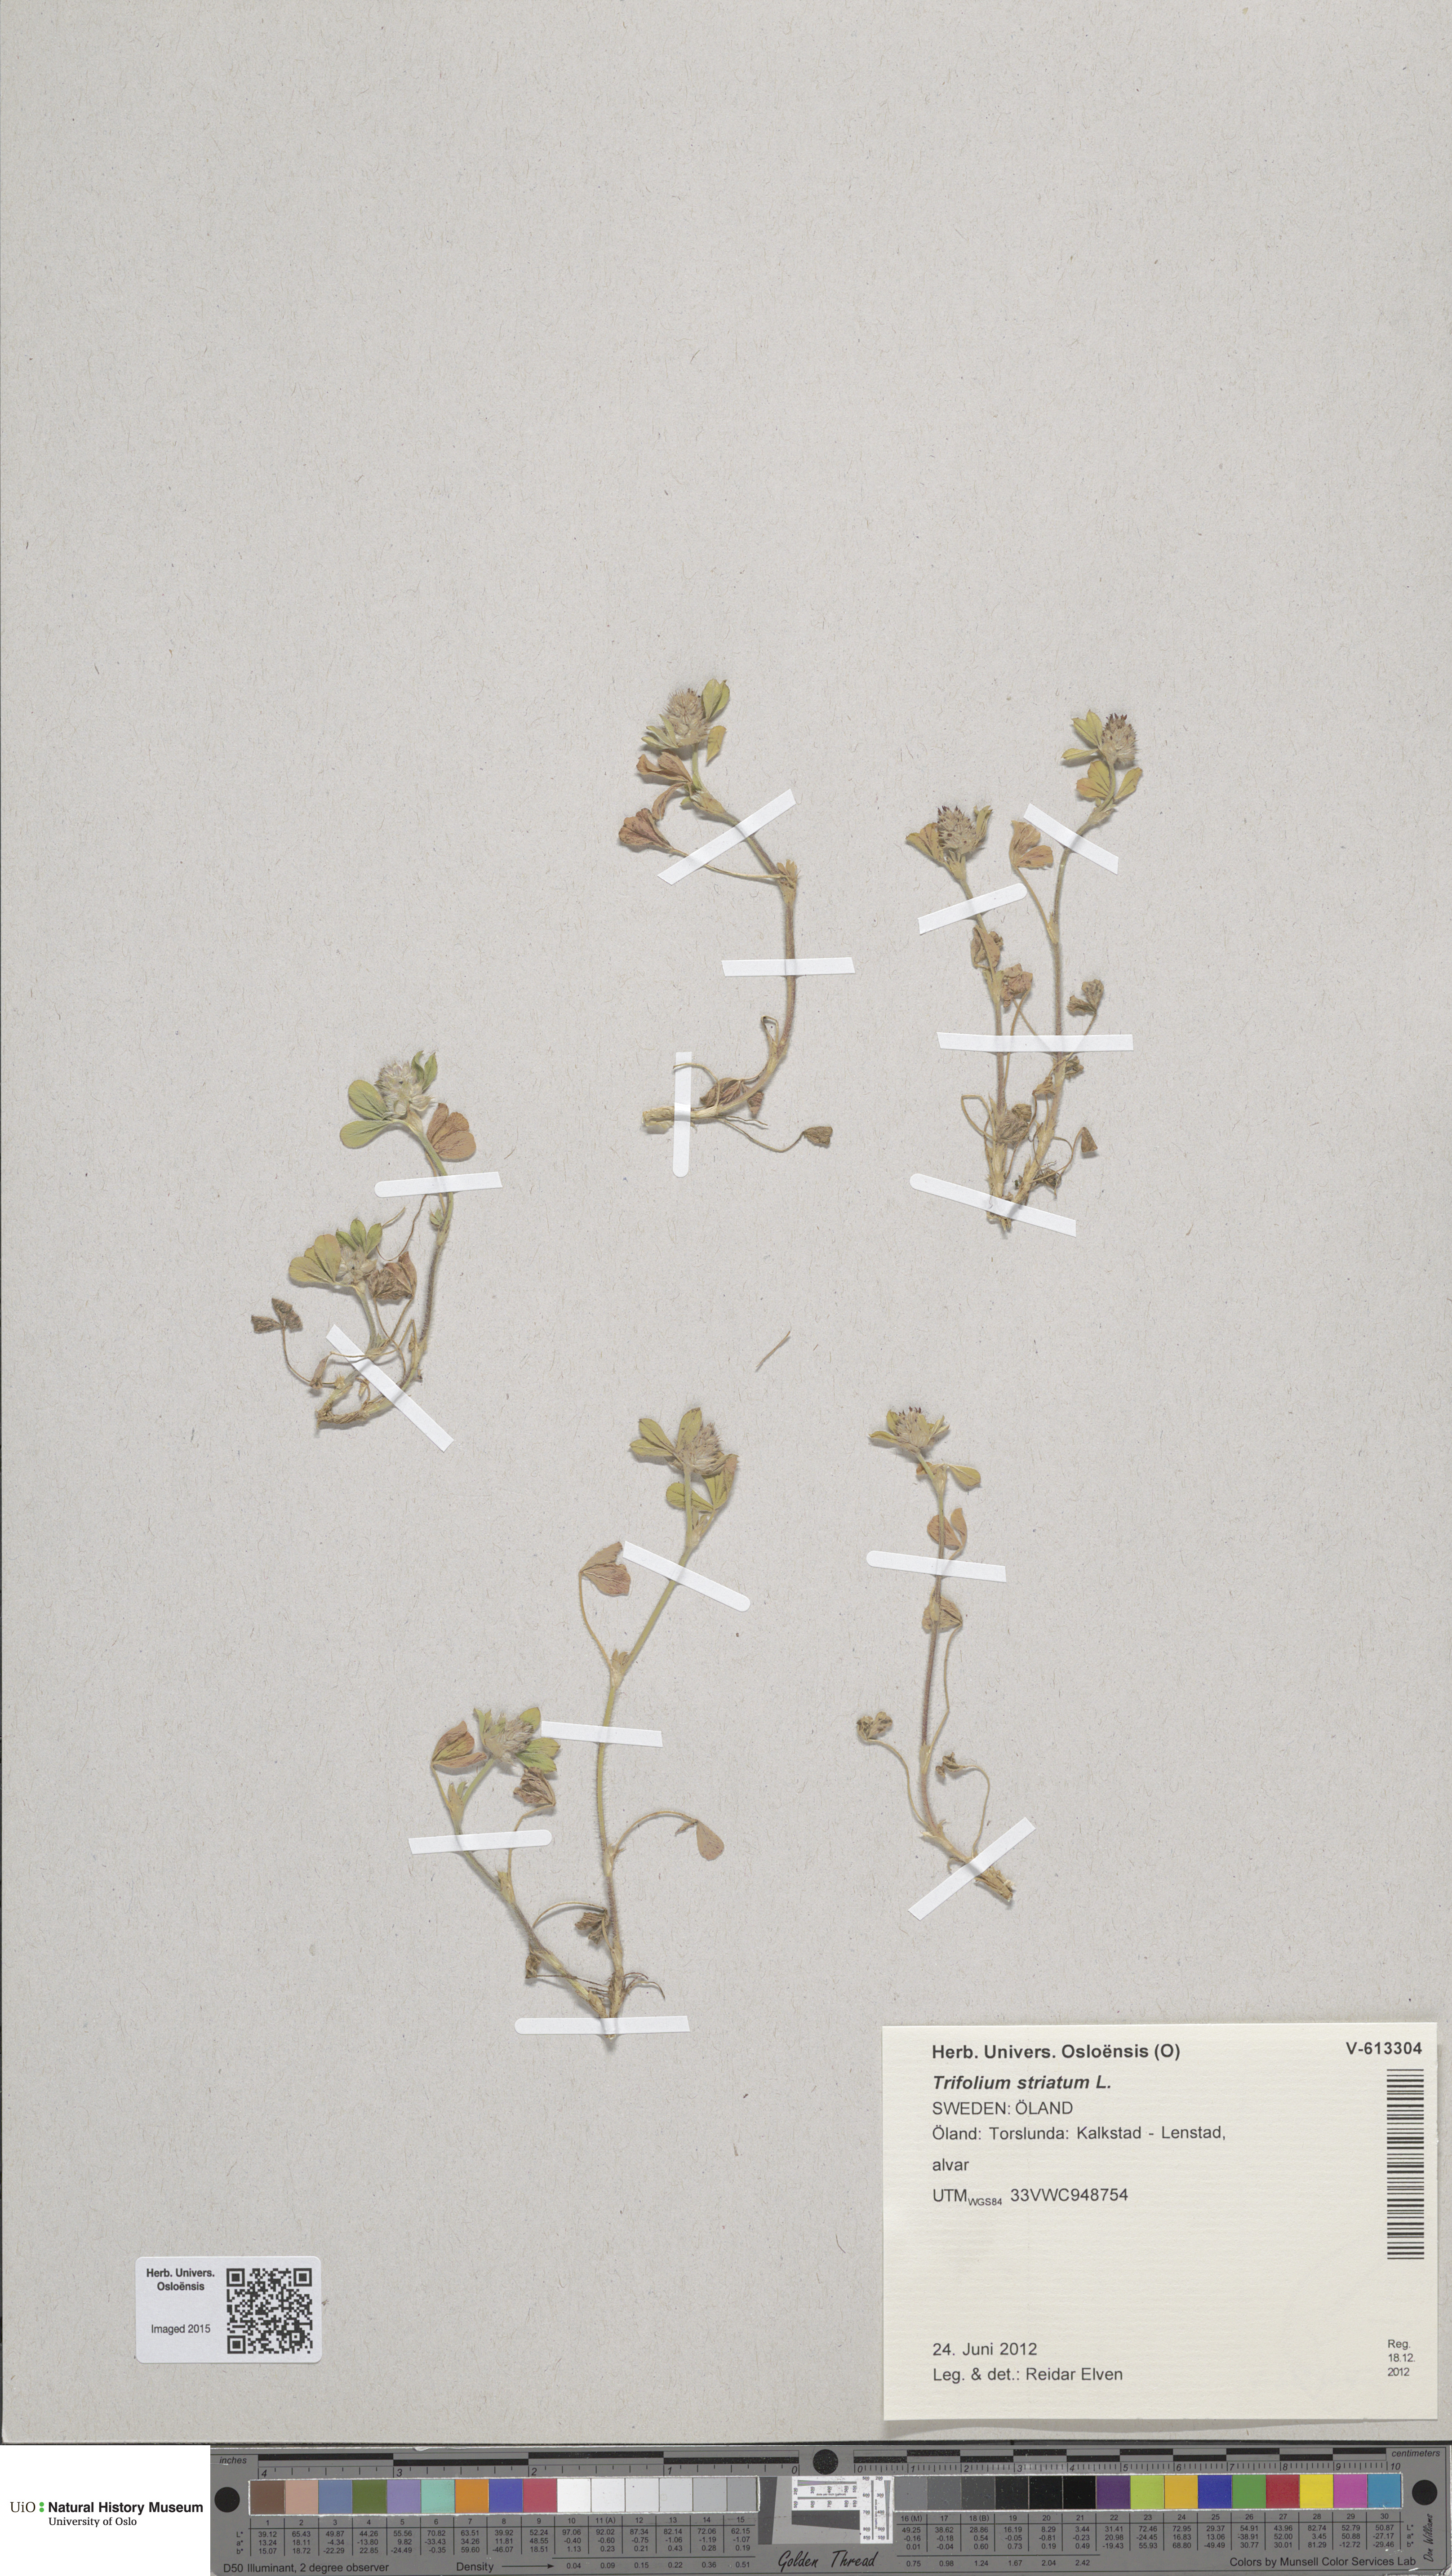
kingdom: Plantae
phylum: Tracheophyta
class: Magnoliopsida
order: Fabales
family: Fabaceae
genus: Trifolium
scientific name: Trifolium striatum
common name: Knotted clover
